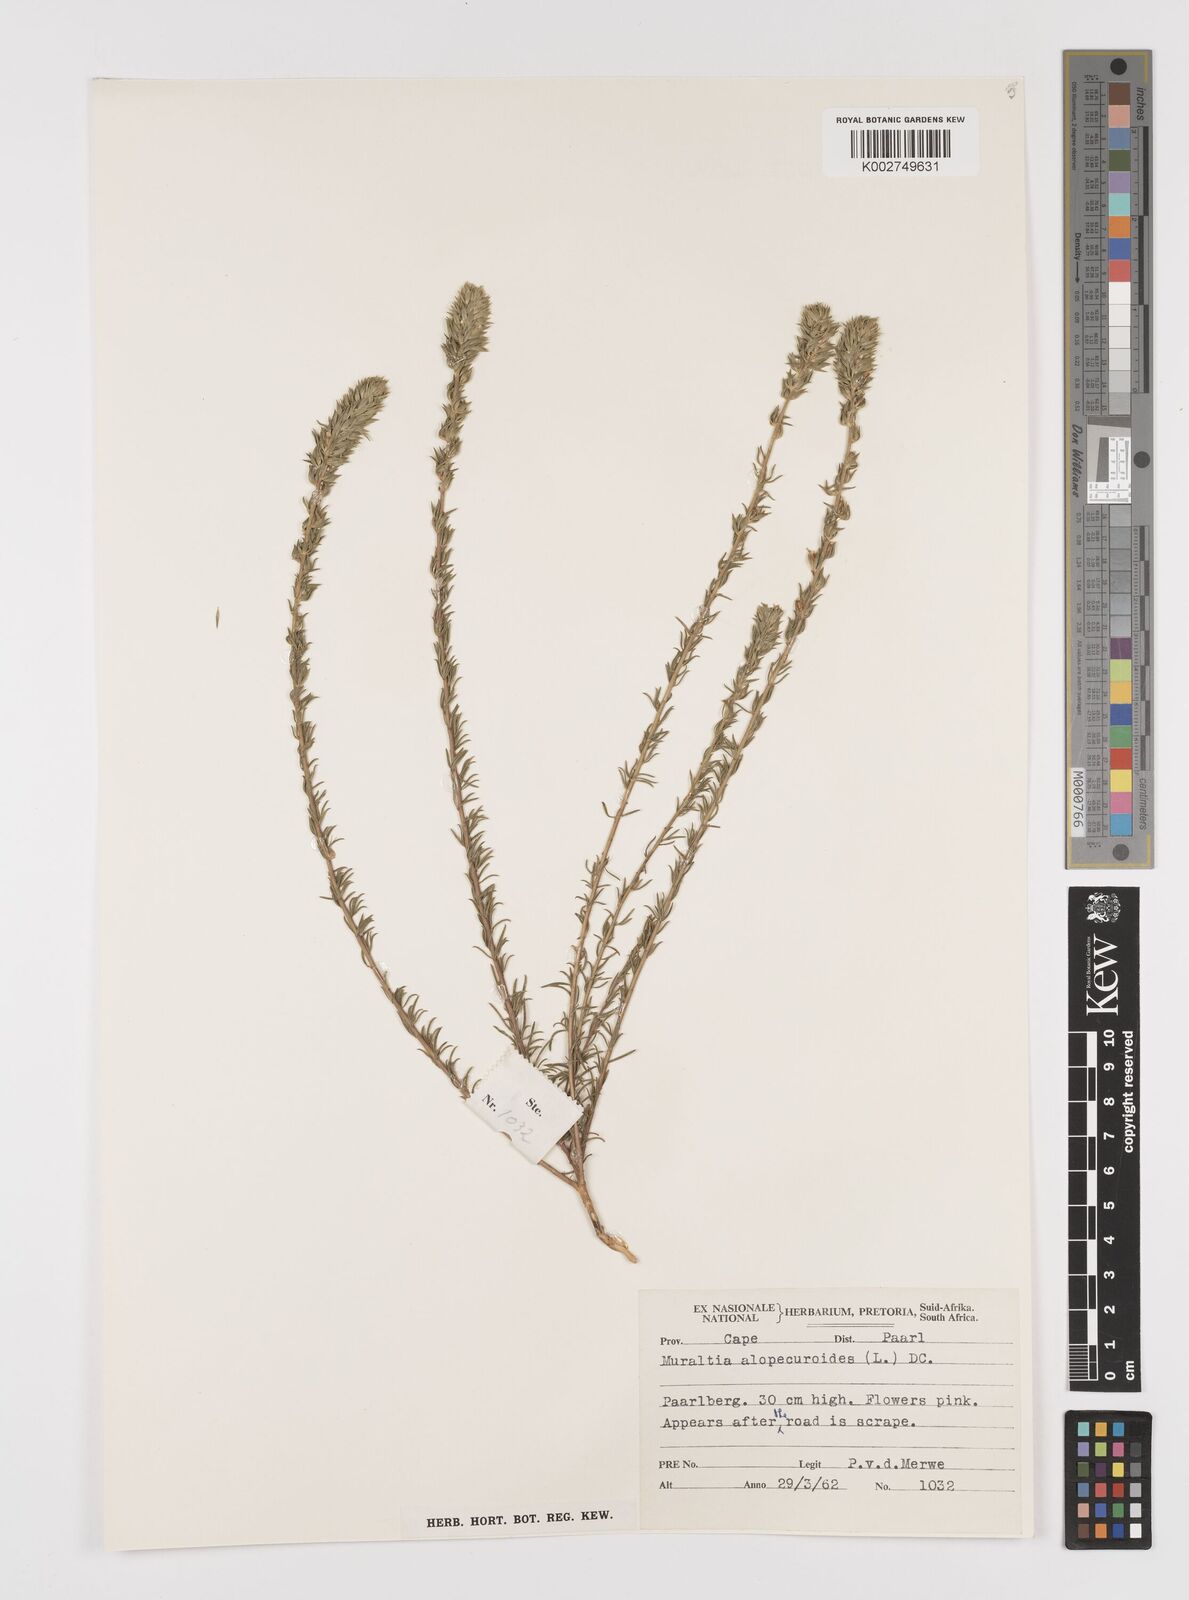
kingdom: Plantae
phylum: Tracheophyta
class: Magnoliopsida
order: Fabales
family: Polygalaceae
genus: Muraltia
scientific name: Muraltia alopecuroides
